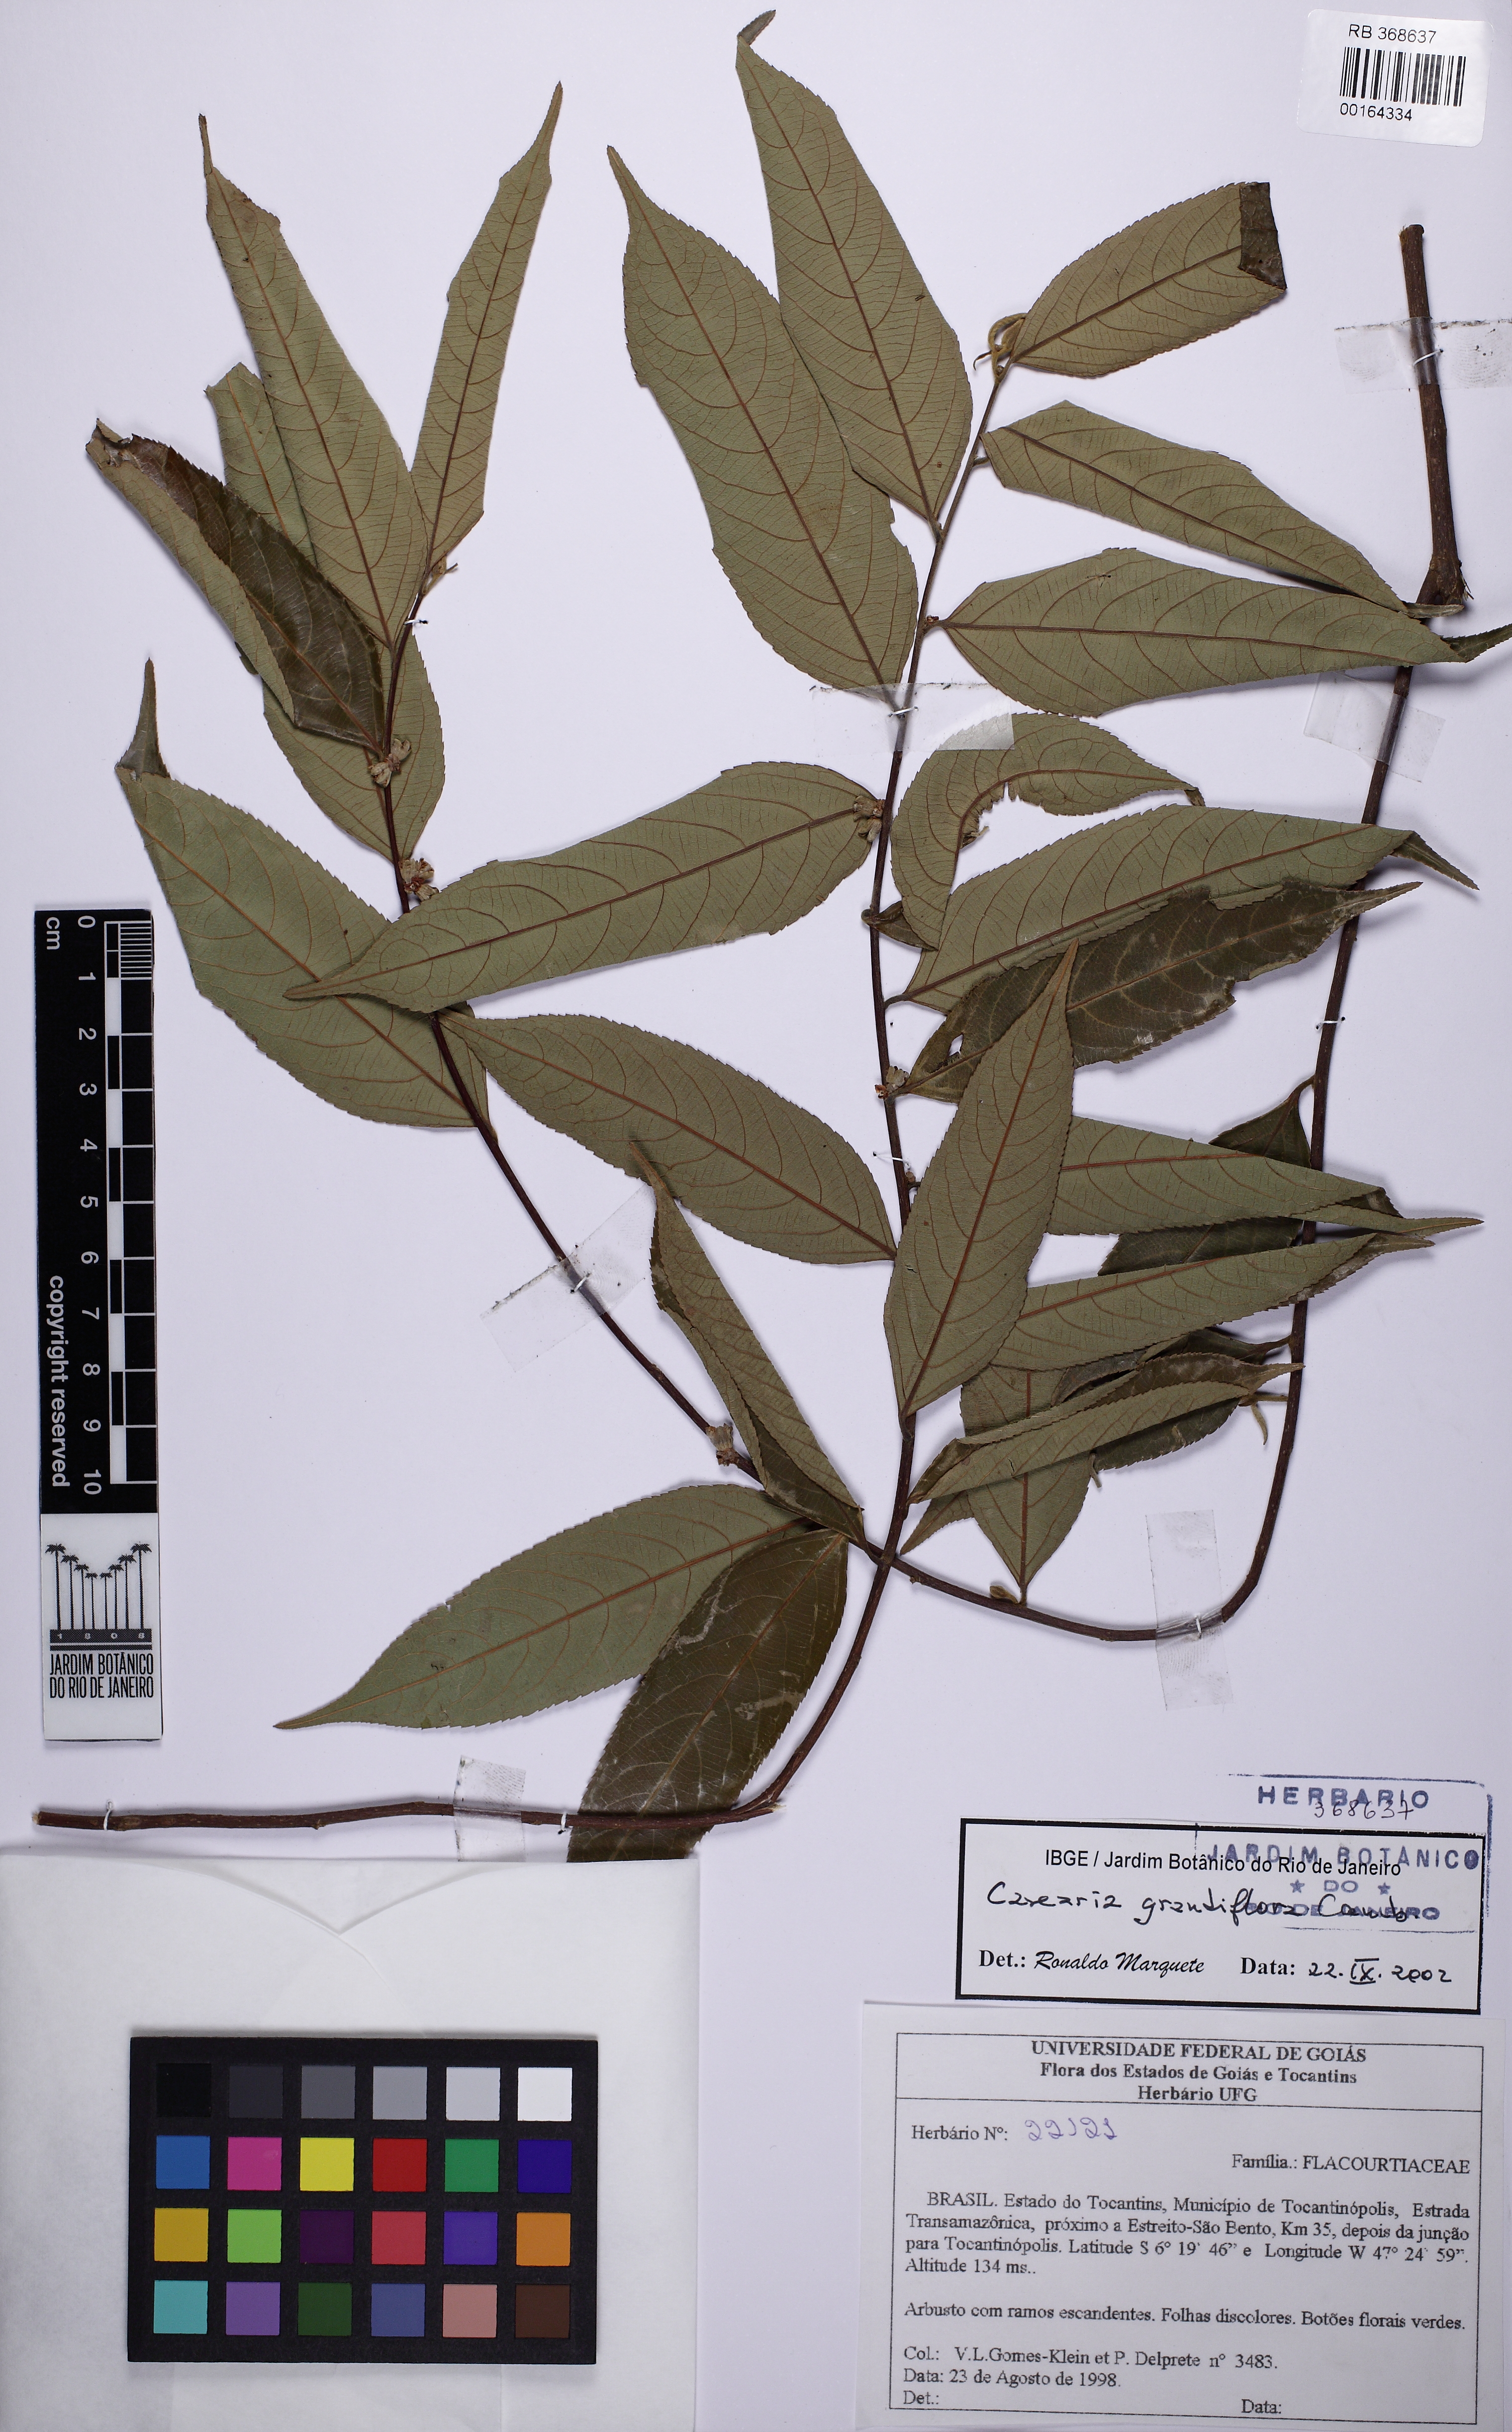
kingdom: Plantae
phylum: Tracheophyta
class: Magnoliopsida
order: Malpighiales
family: Salicaceae
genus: Casearia
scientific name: Casearia grandiflora
